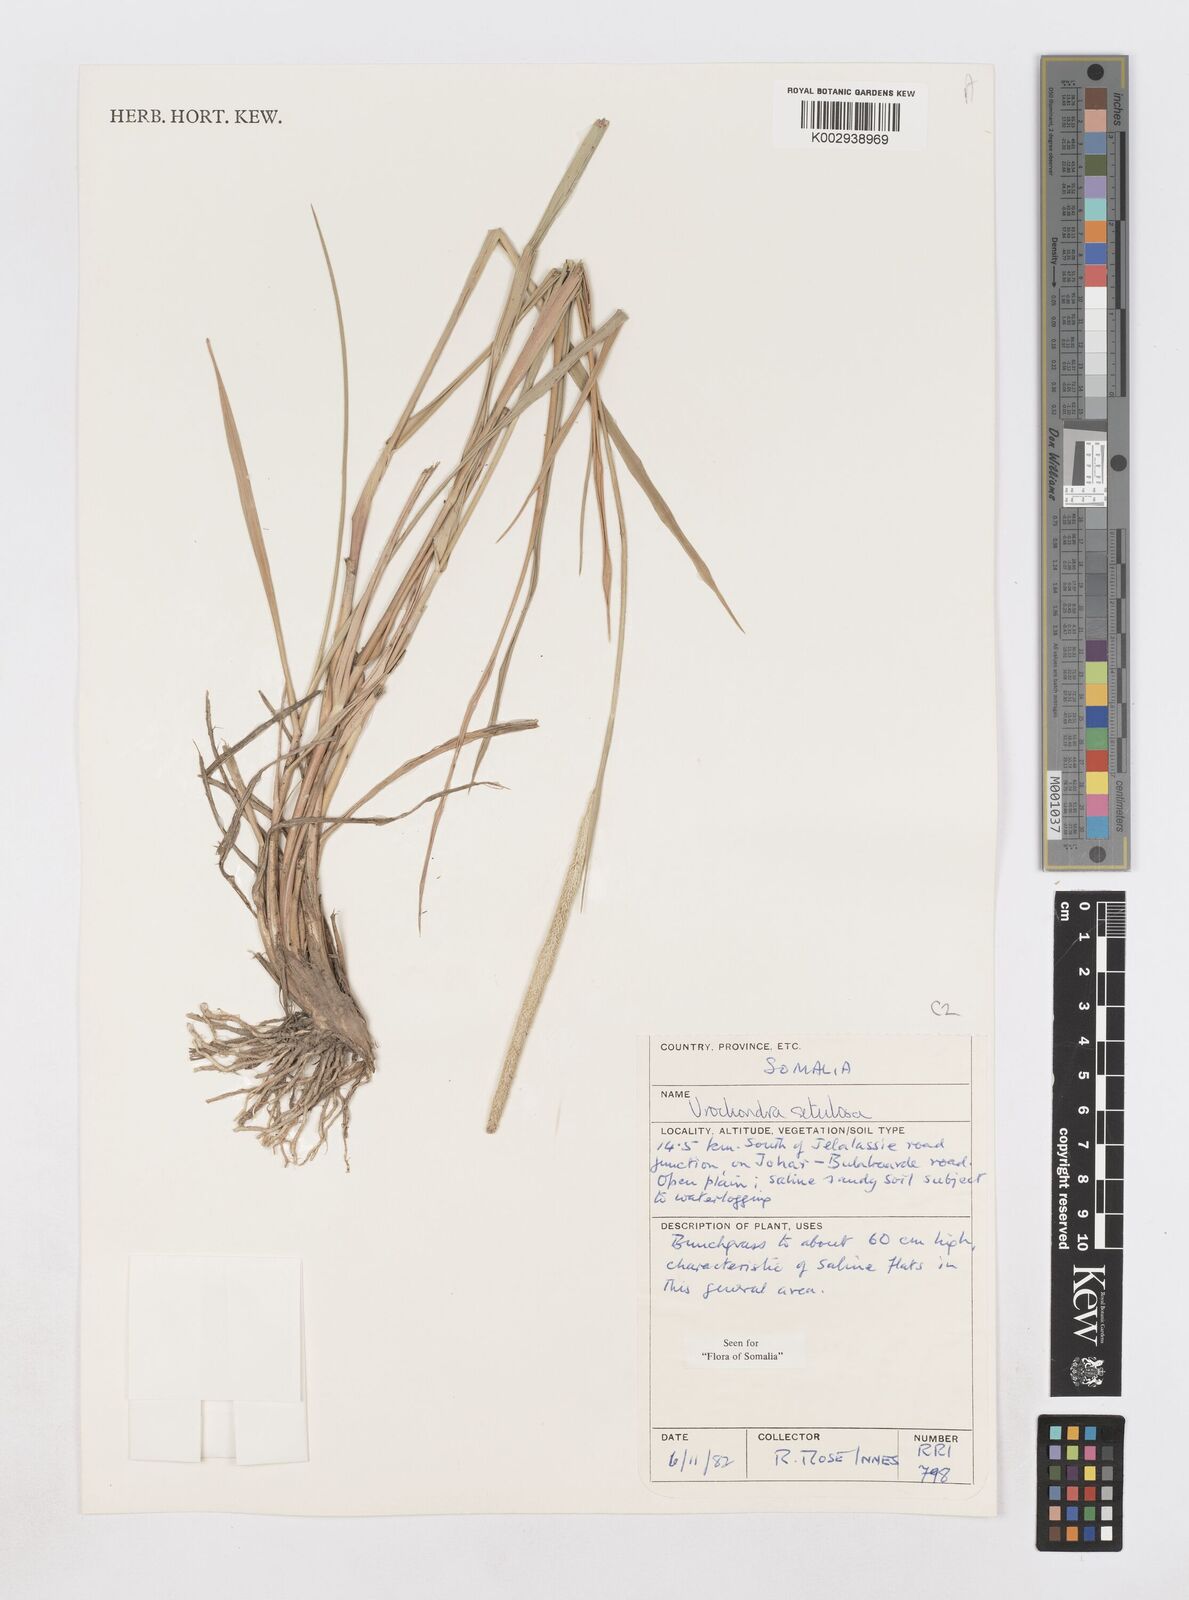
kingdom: Plantae
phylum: Tracheophyta
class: Liliopsida
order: Poales
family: Poaceae
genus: Urochondra
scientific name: Urochondra setulosa
